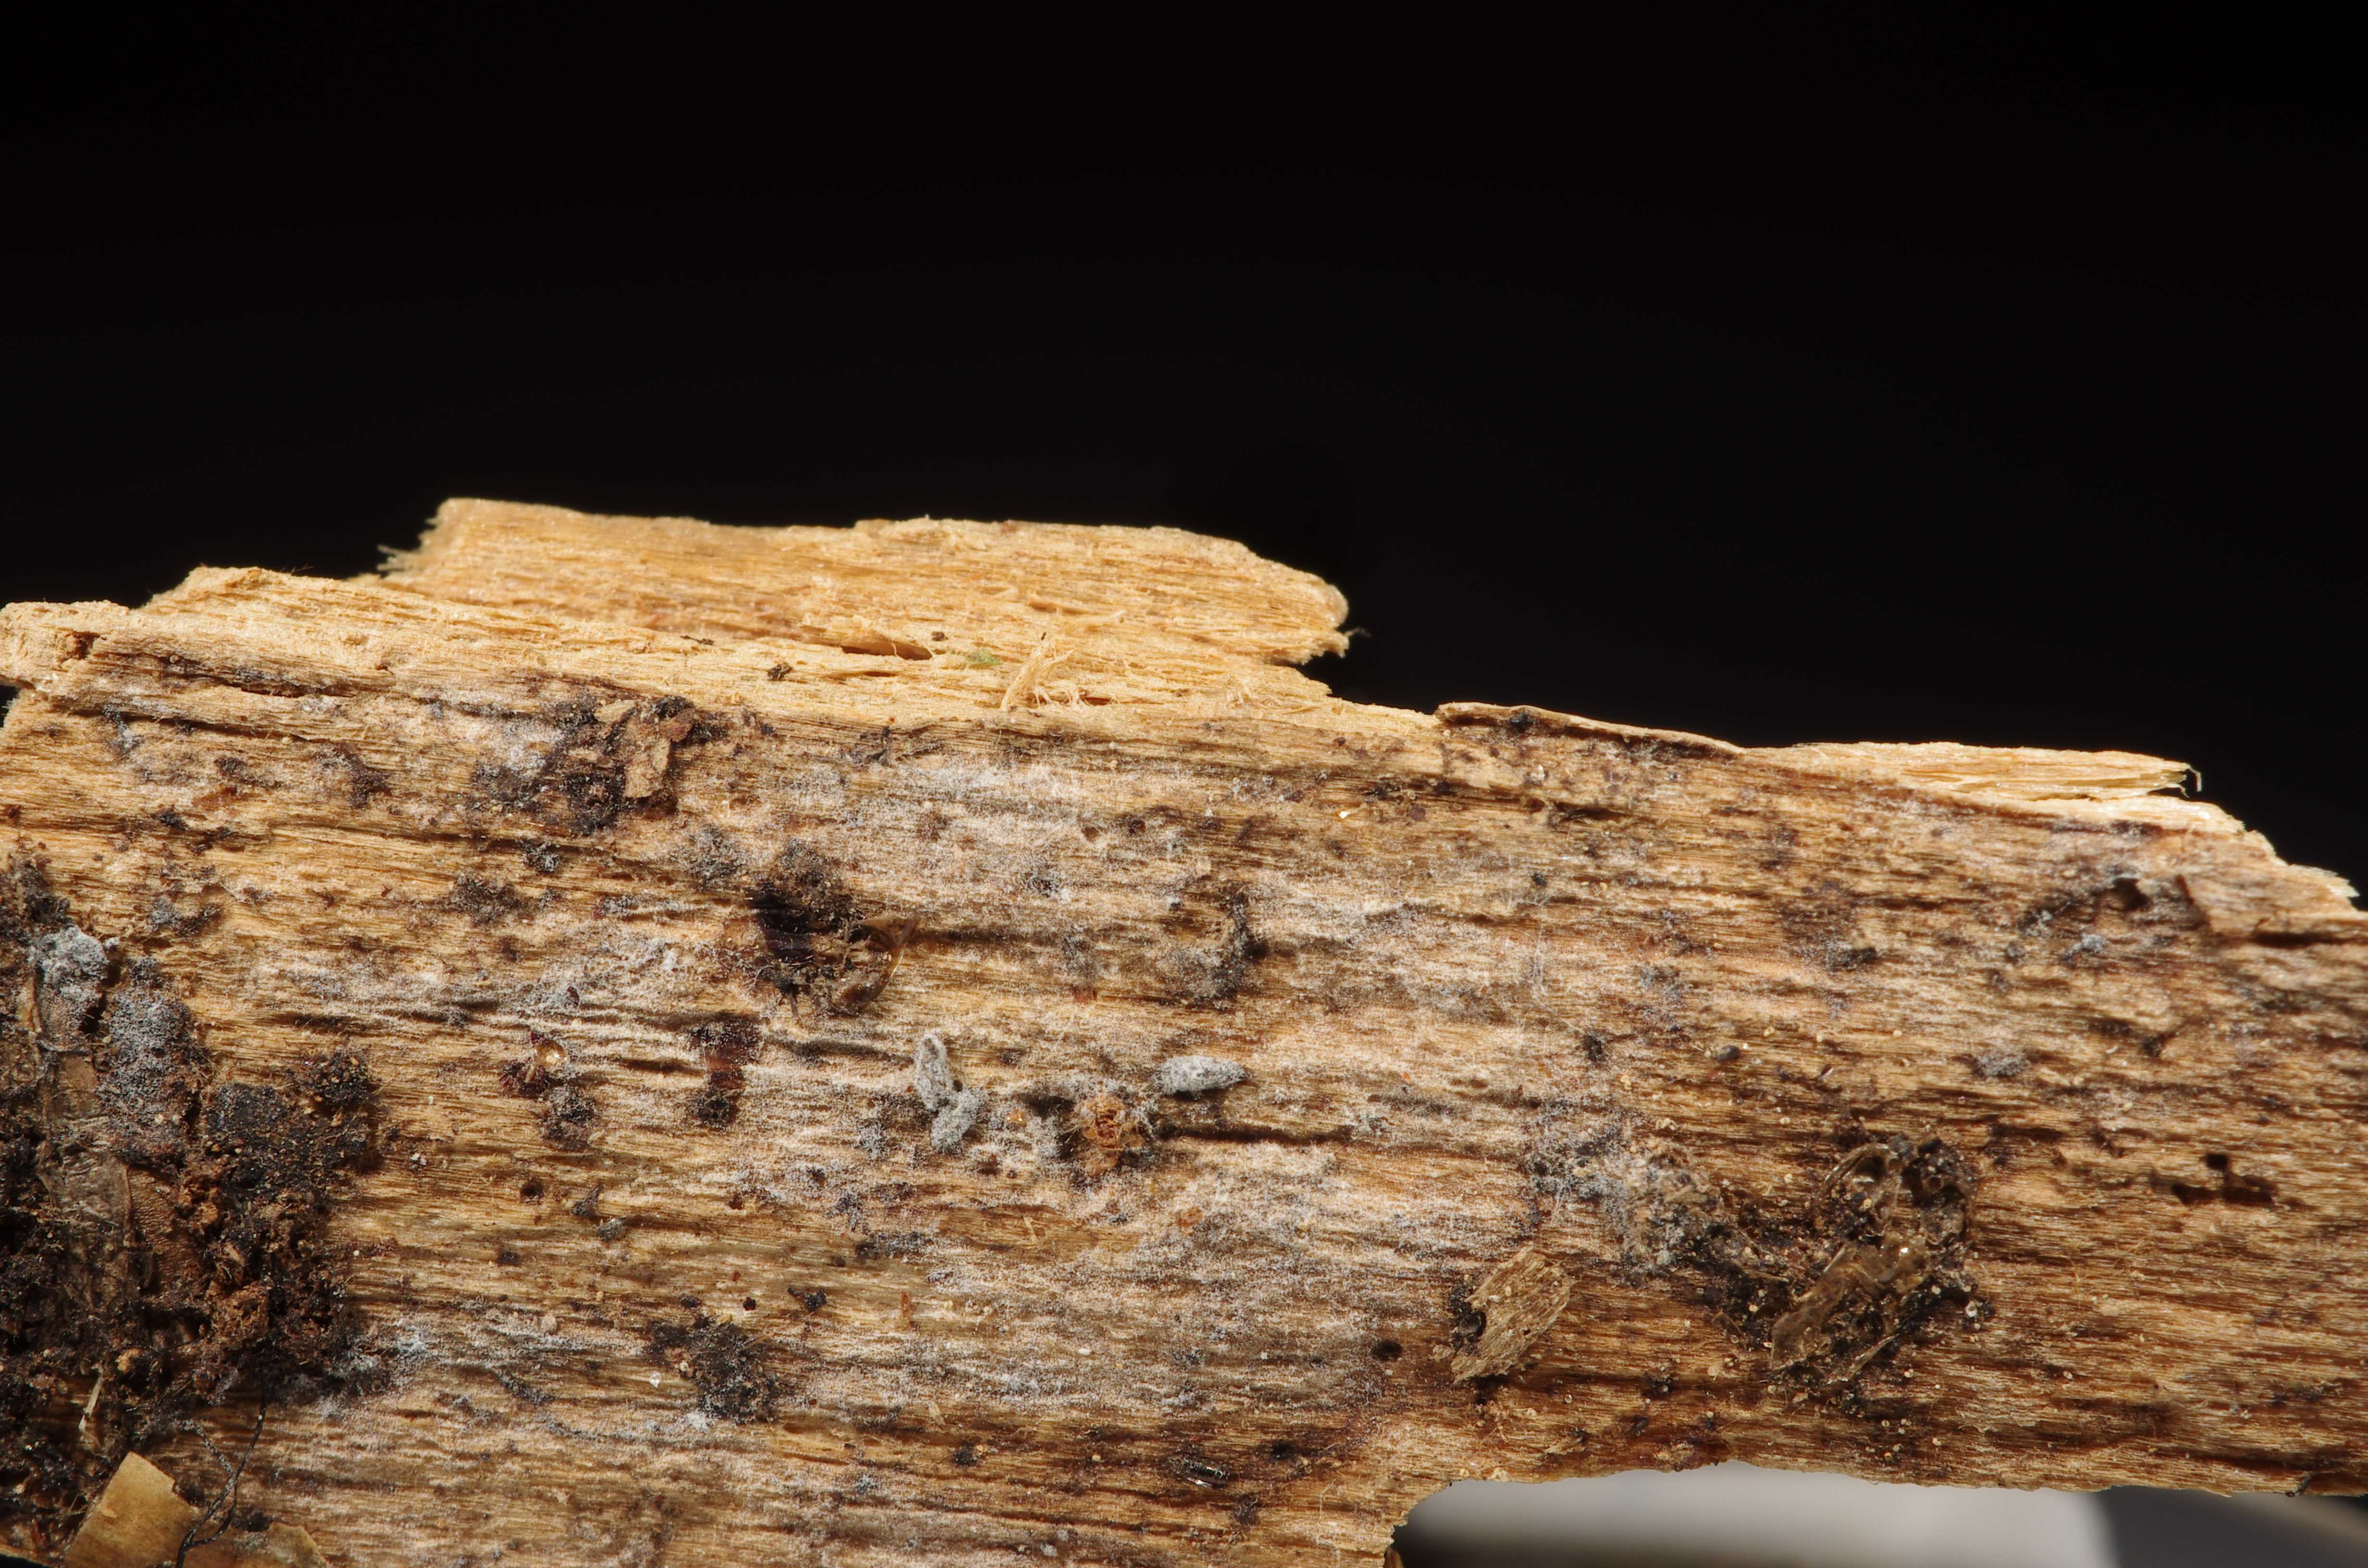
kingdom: Fungi
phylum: Basidiomycota
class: Agaricomycetes
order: Polyporales
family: Hyphodermataceae
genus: Hyphoderma
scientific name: Hyphoderma occidentale
